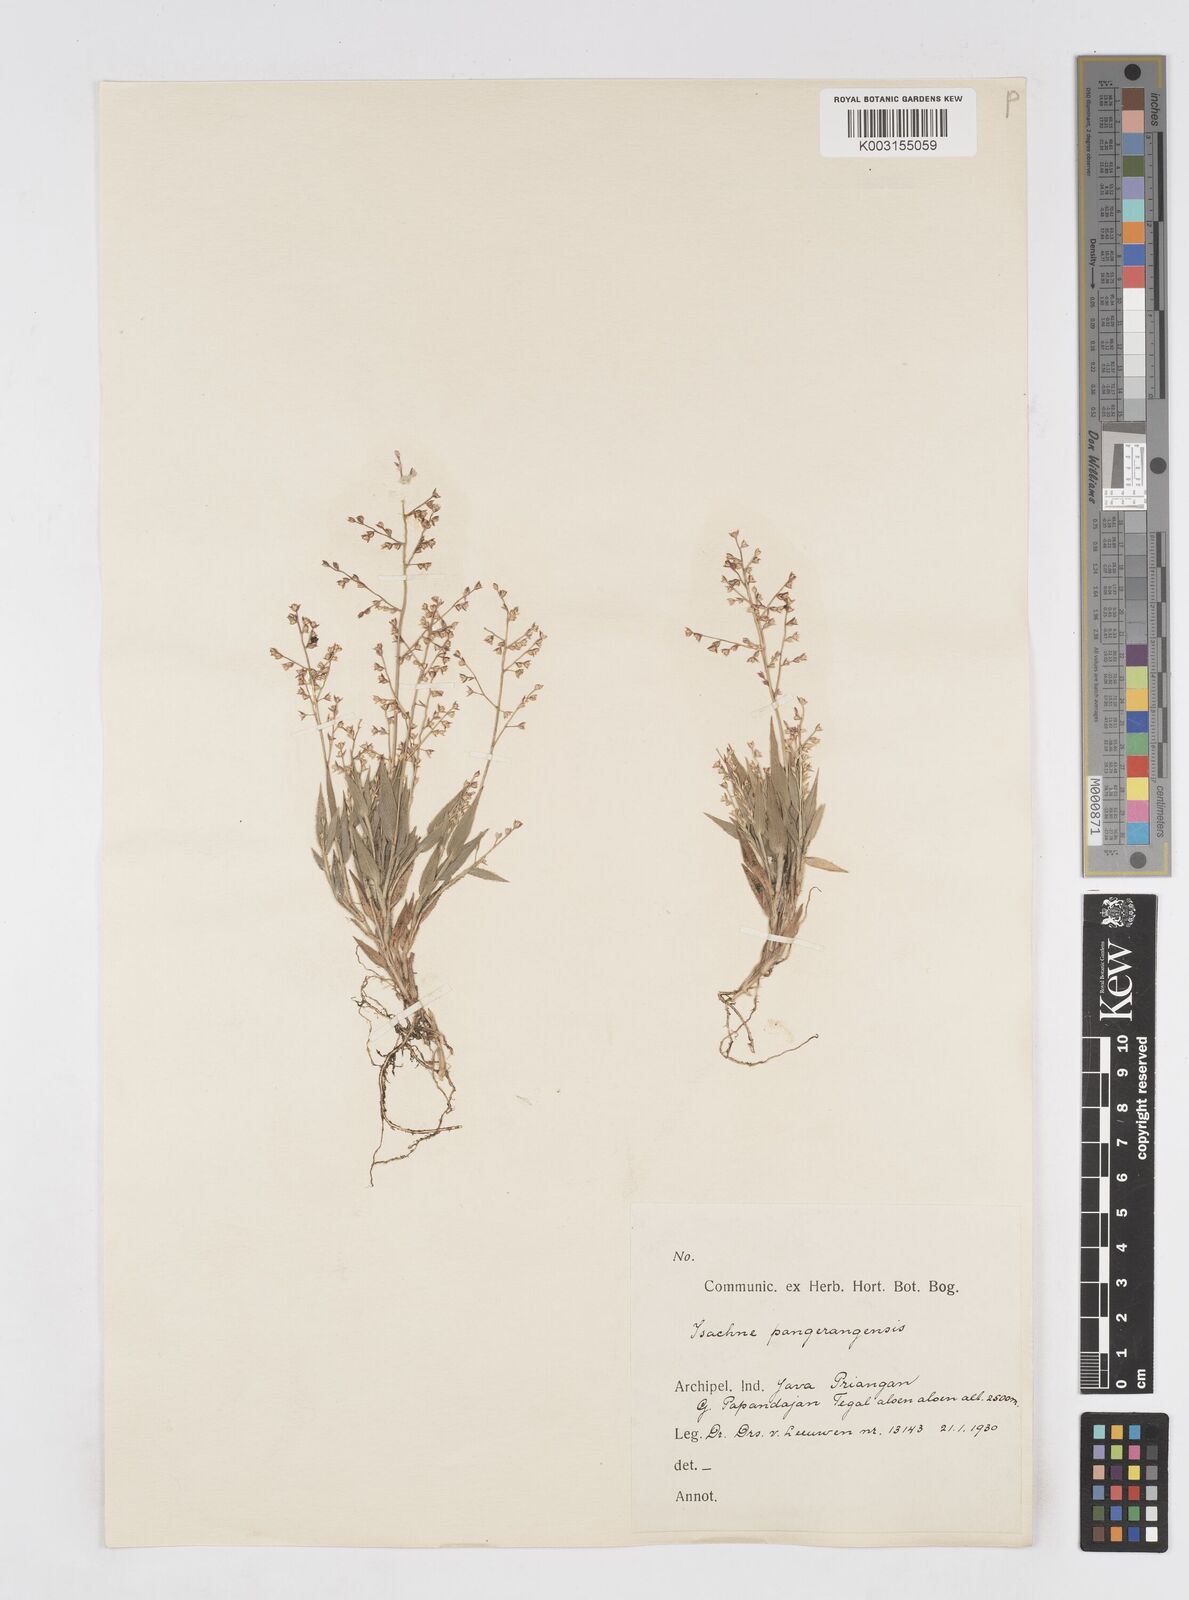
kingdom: Plantae
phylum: Tracheophyta
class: Liliopsida
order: Poales
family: Poaceae
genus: Isachne
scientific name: Isachne pangerangensis
